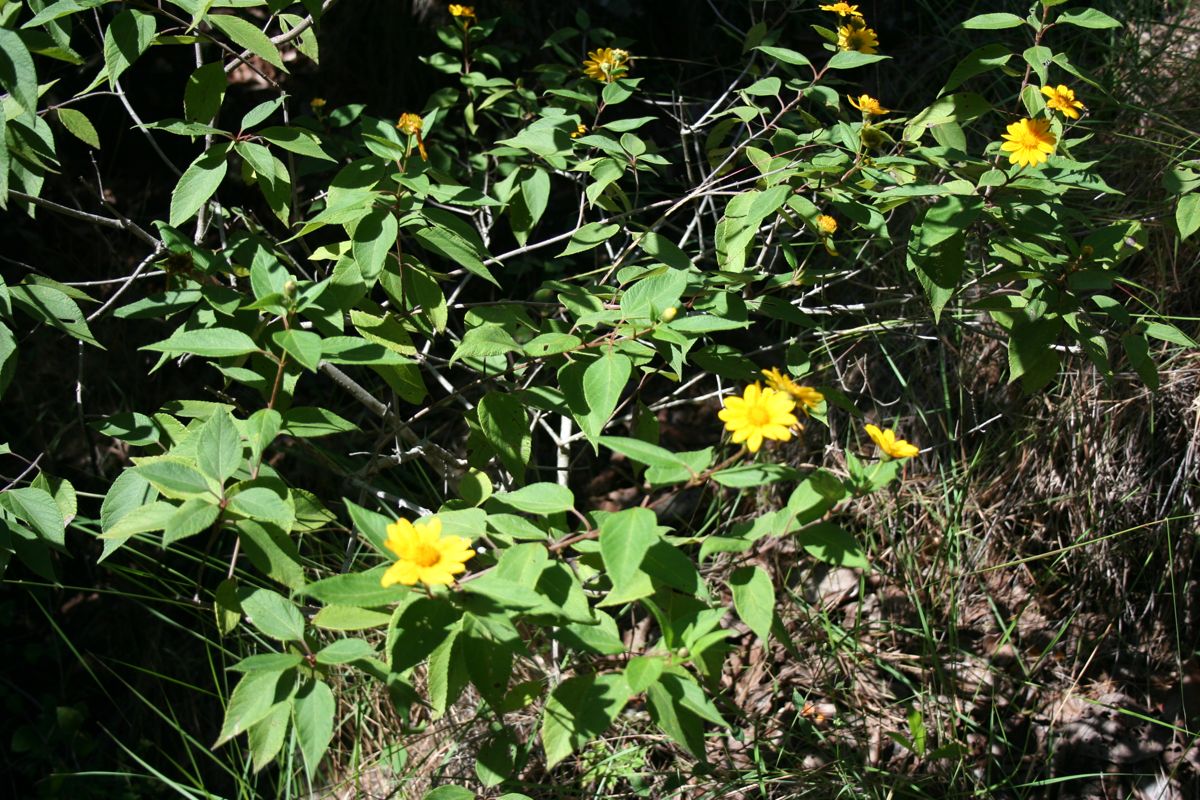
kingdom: Plantae
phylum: Tracheophyta
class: Magnoliopsida
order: Asterales
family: Asteraceae
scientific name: Asteraceae
